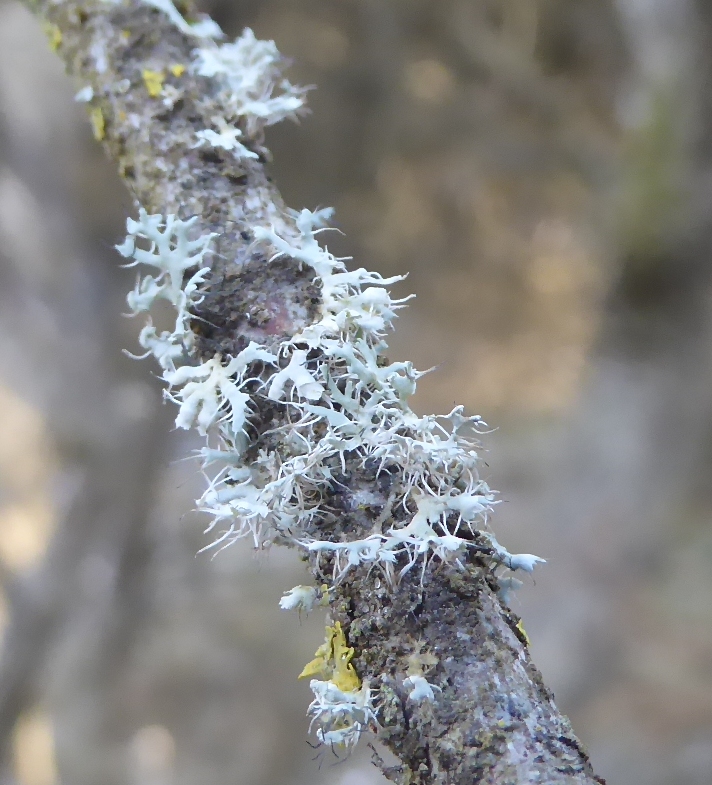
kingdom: Fungi
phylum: Ascomycota
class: Lecanoromycetes
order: Caliciales
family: Physciaceae
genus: Physcia
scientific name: Physcia adscendens
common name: hætte-rosetlav
